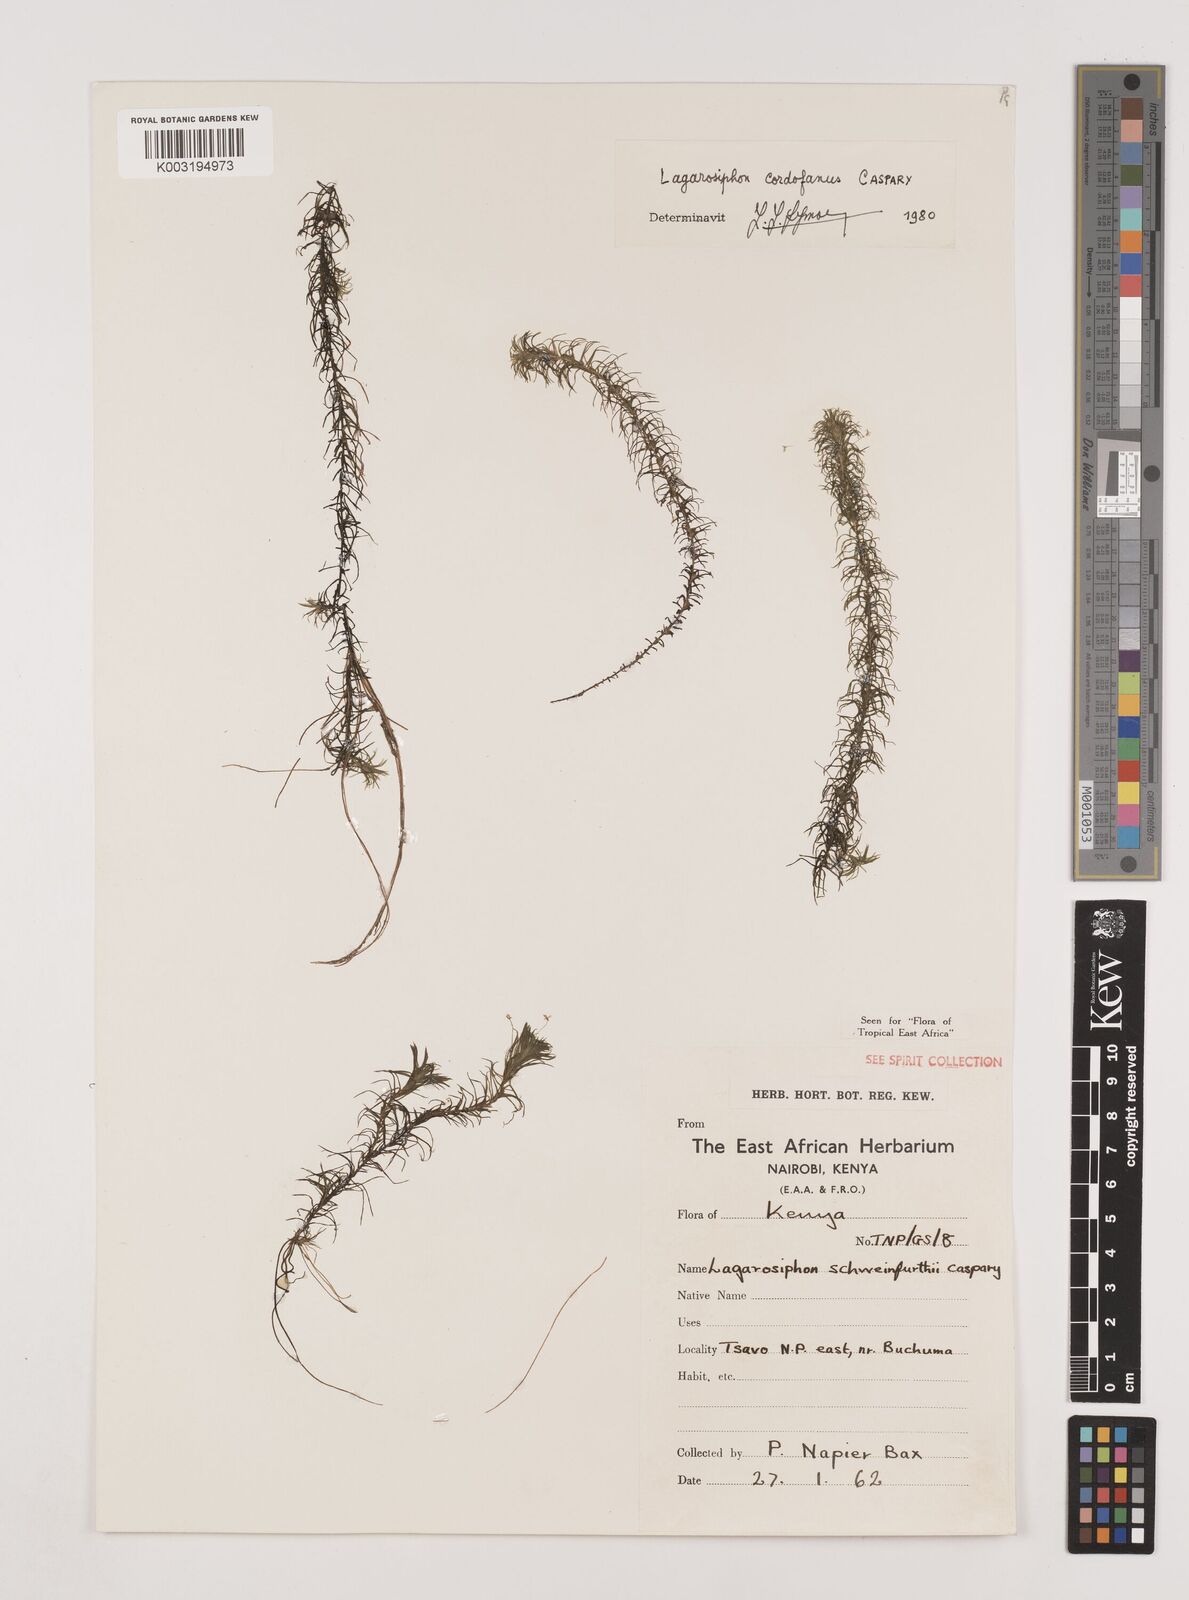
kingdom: Plantae
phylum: Tracheophyta
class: Liliopsida
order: Alismatales
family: Hydrocharitaceae
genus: Lagarosiphon
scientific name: Lagarosiphon cordofanus
